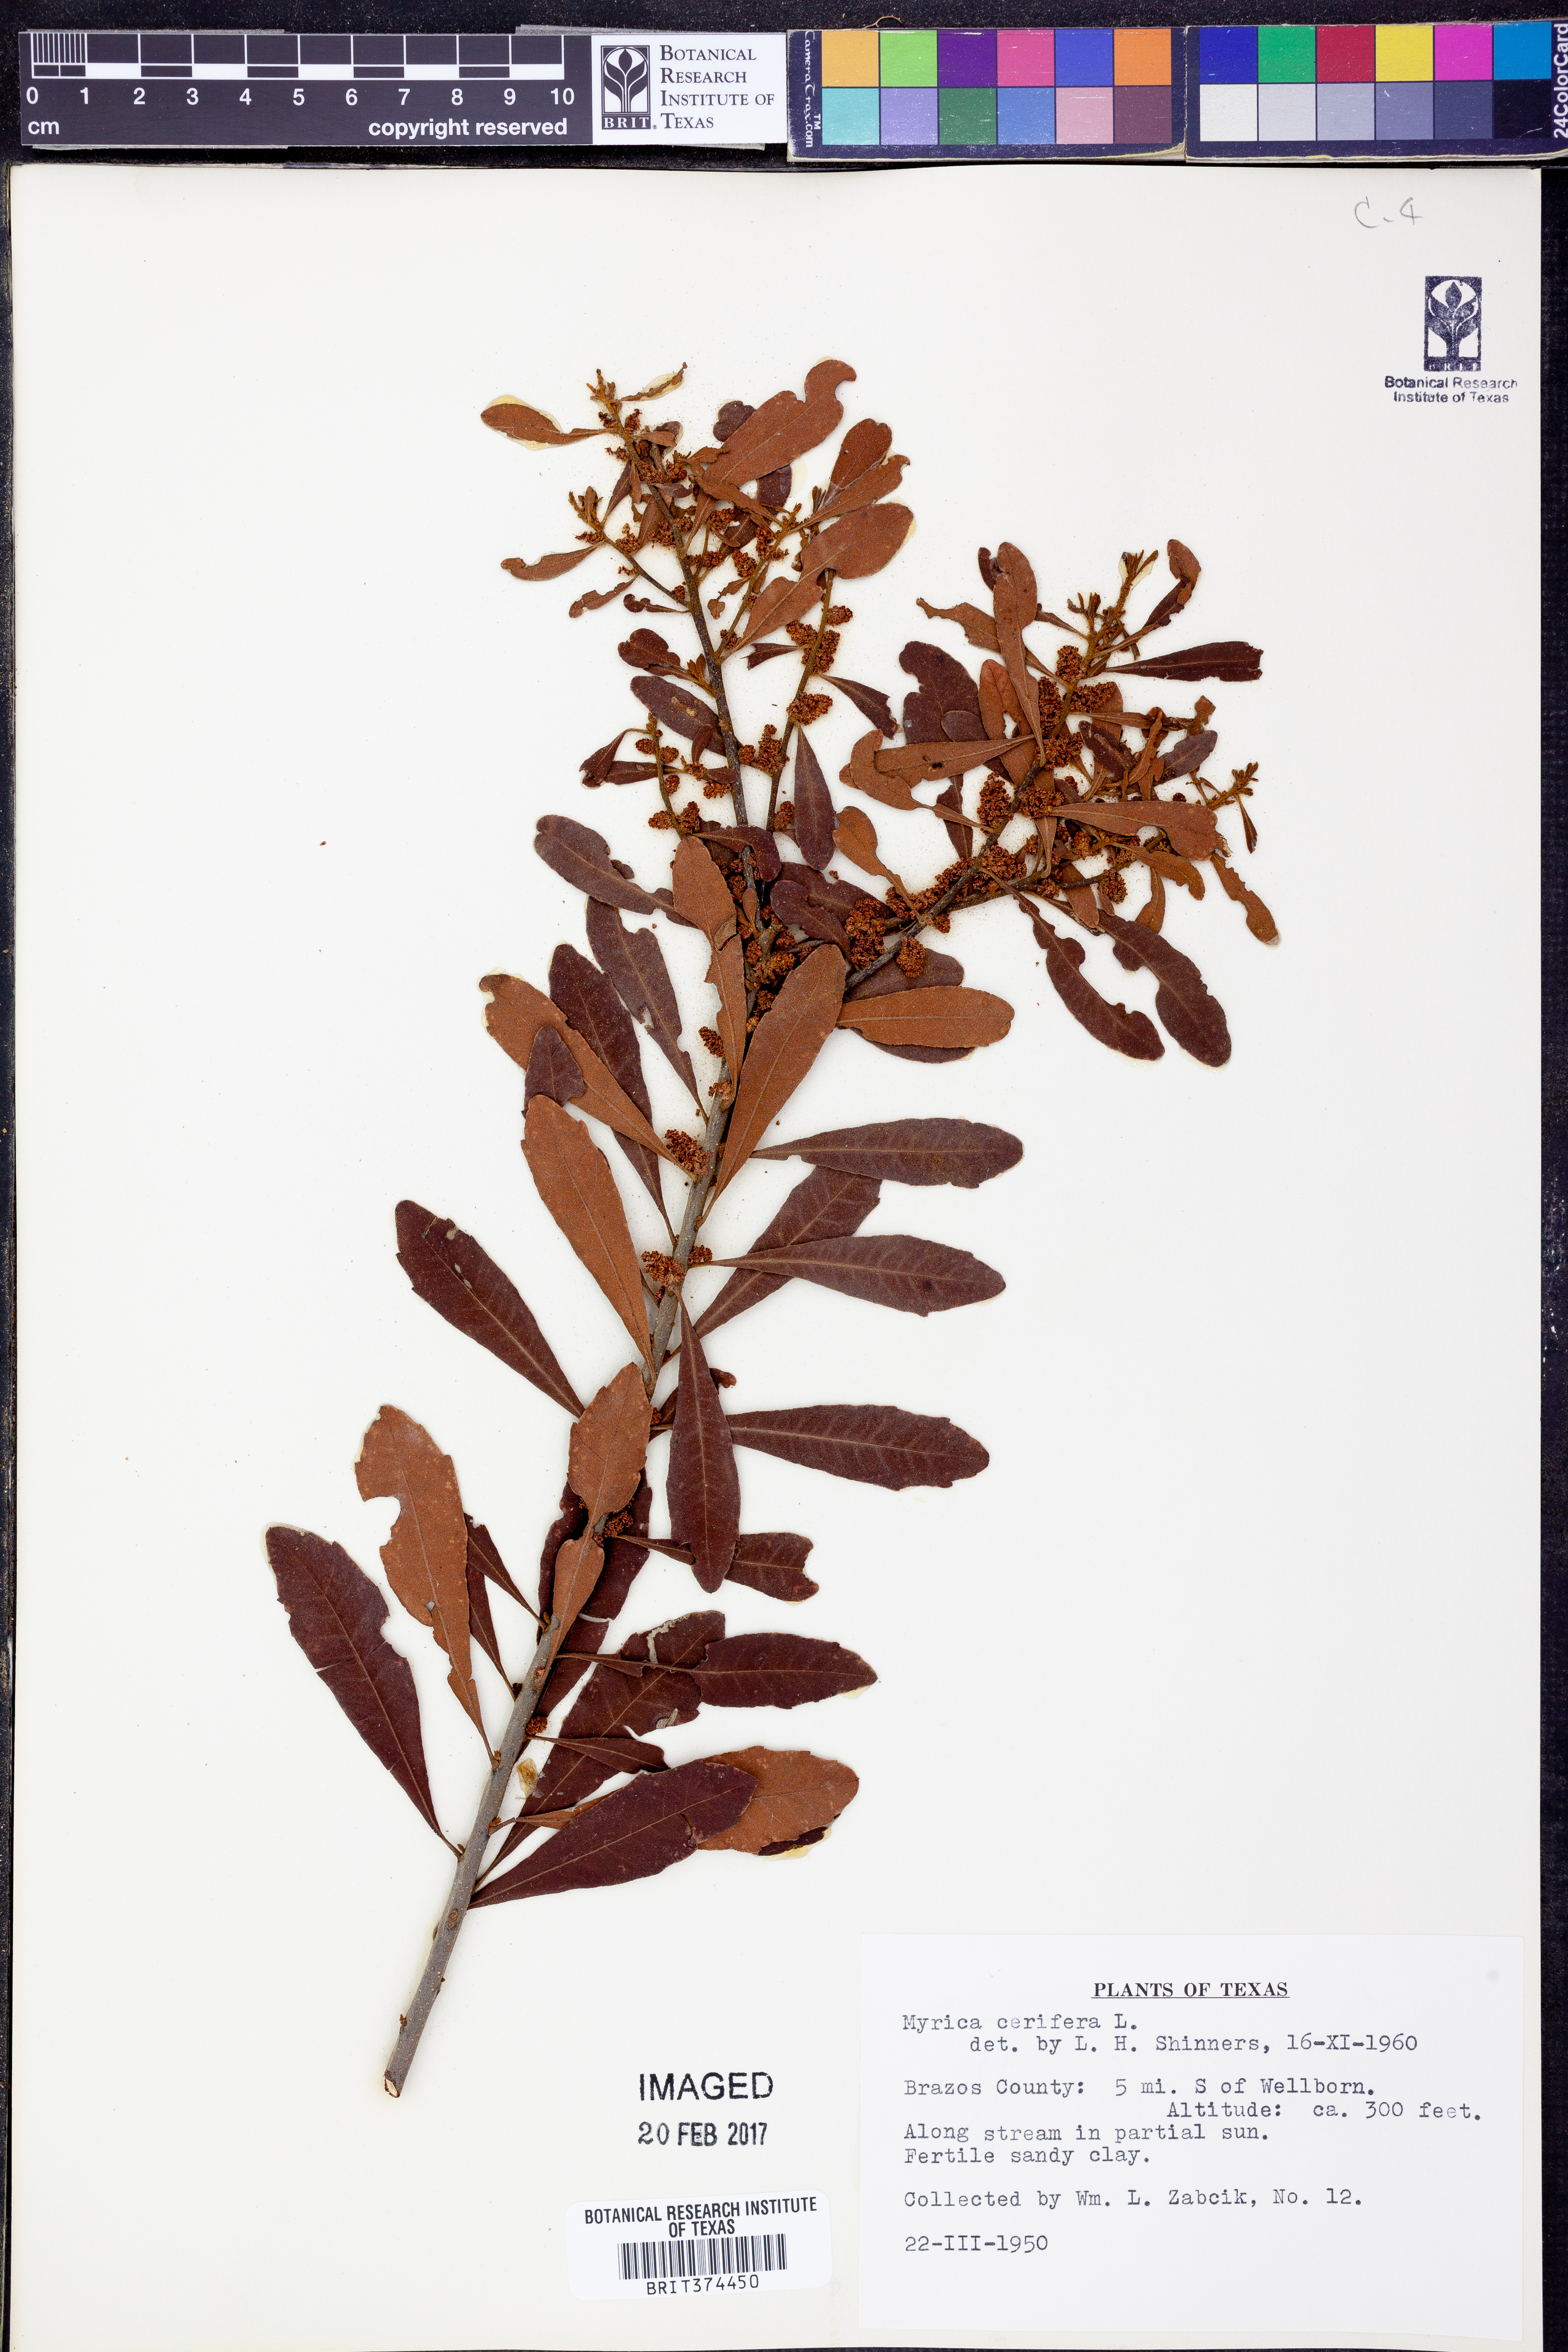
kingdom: Plantae
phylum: Tracheophyta
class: Magnoliopsida
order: Fagales
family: Myricaceae
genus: Morella
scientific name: Morella cerifera
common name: Wax myrtle
